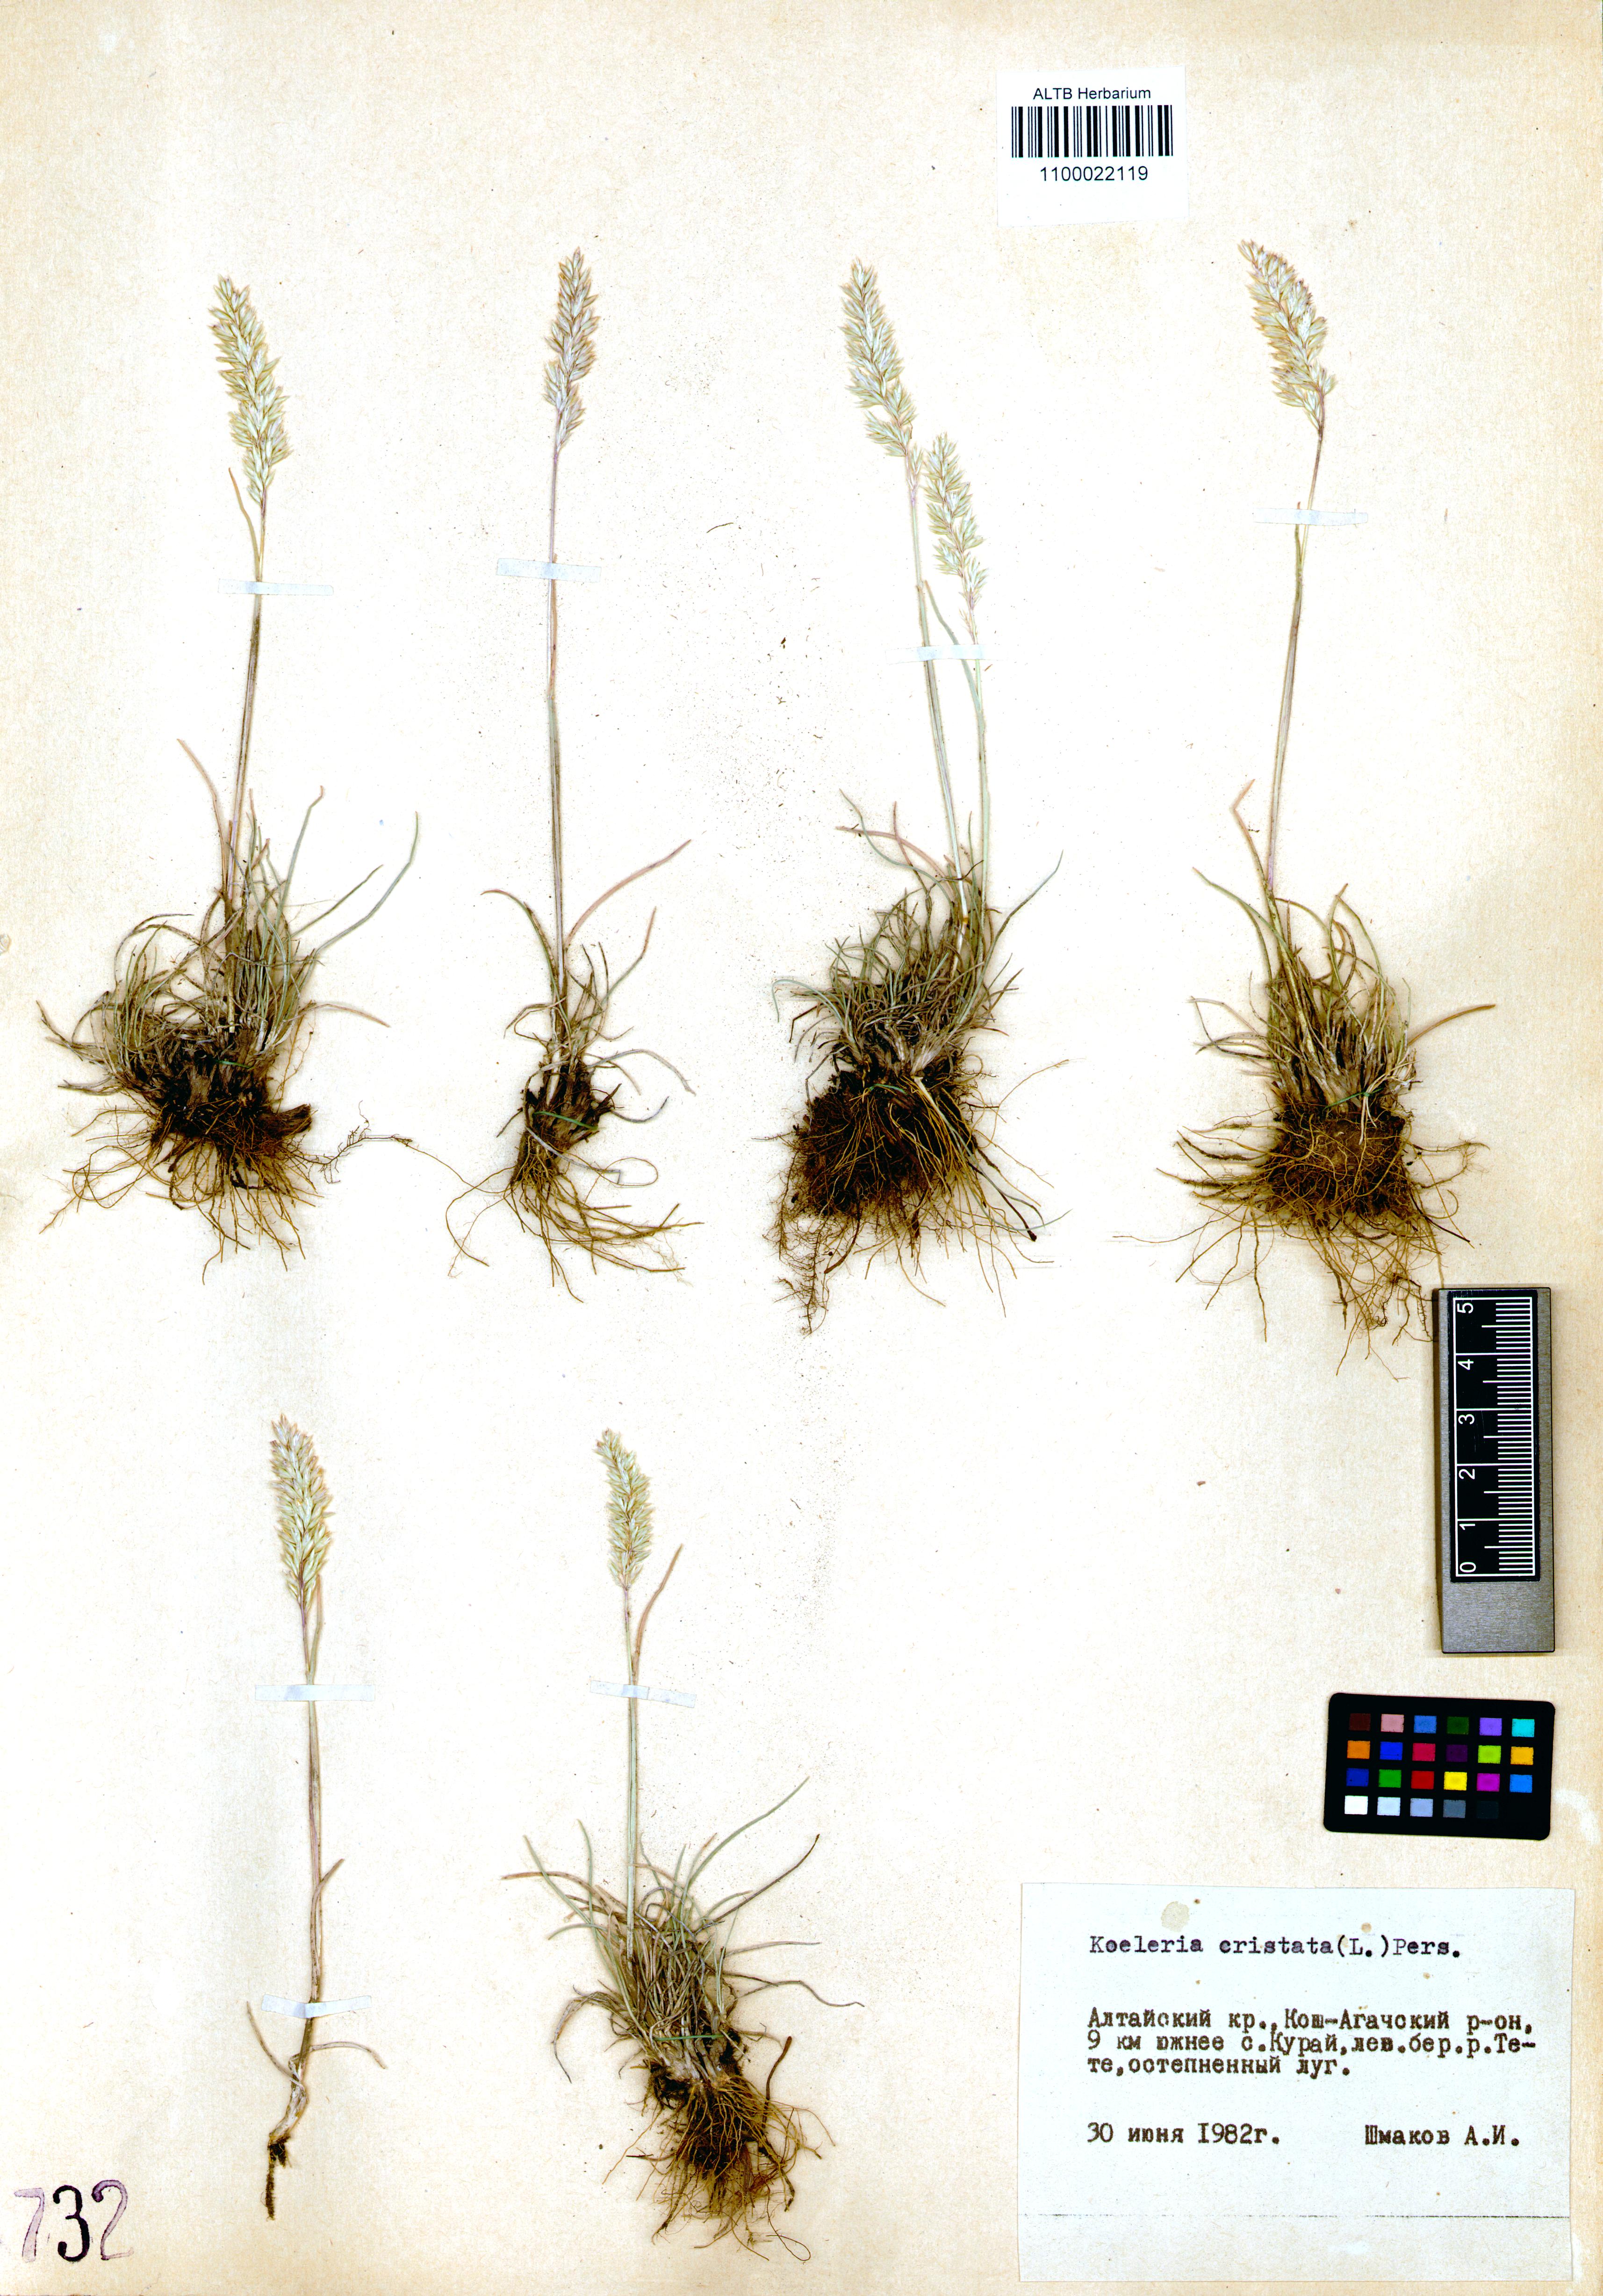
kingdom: Plantae
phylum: Tracheophyta
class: Liliopsida
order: Poales
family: Poaceae
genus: Koeleria
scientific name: Koeleria pyramidata
